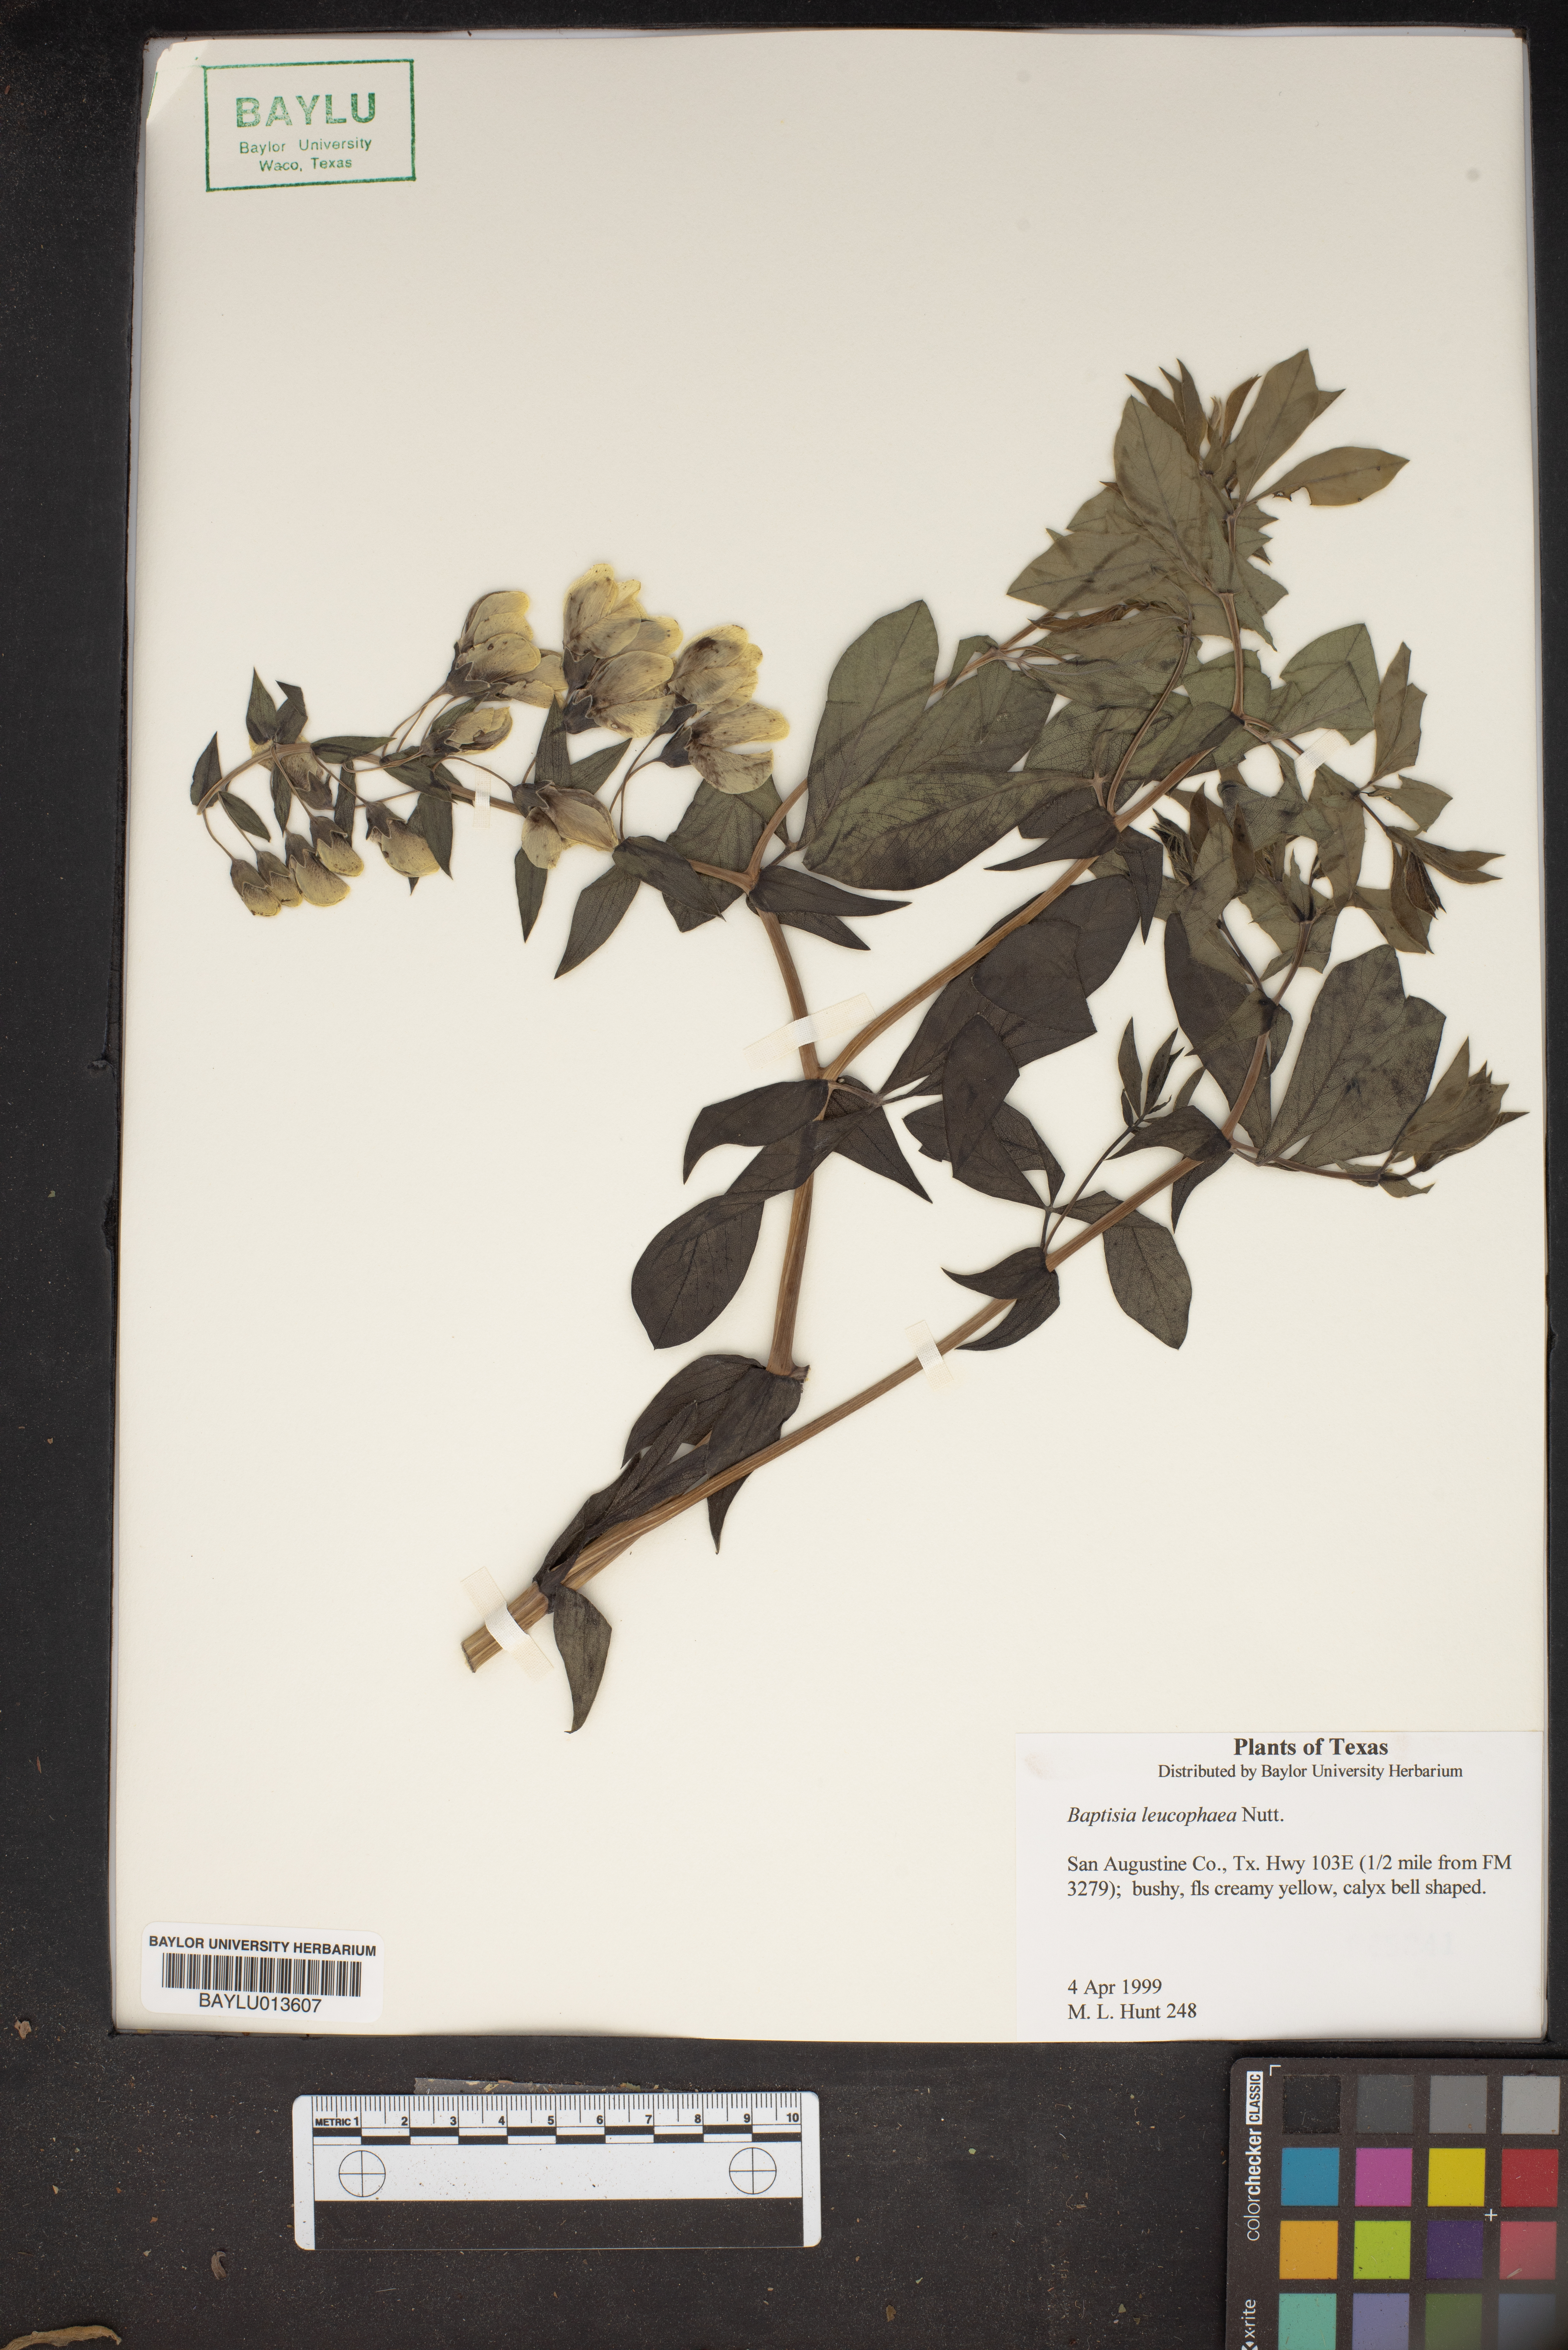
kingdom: Plantae
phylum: Tracheophyta
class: Magnoliopsida
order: Fabales
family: Fabaceae
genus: Baptisia
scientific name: Baptisia bracteata
